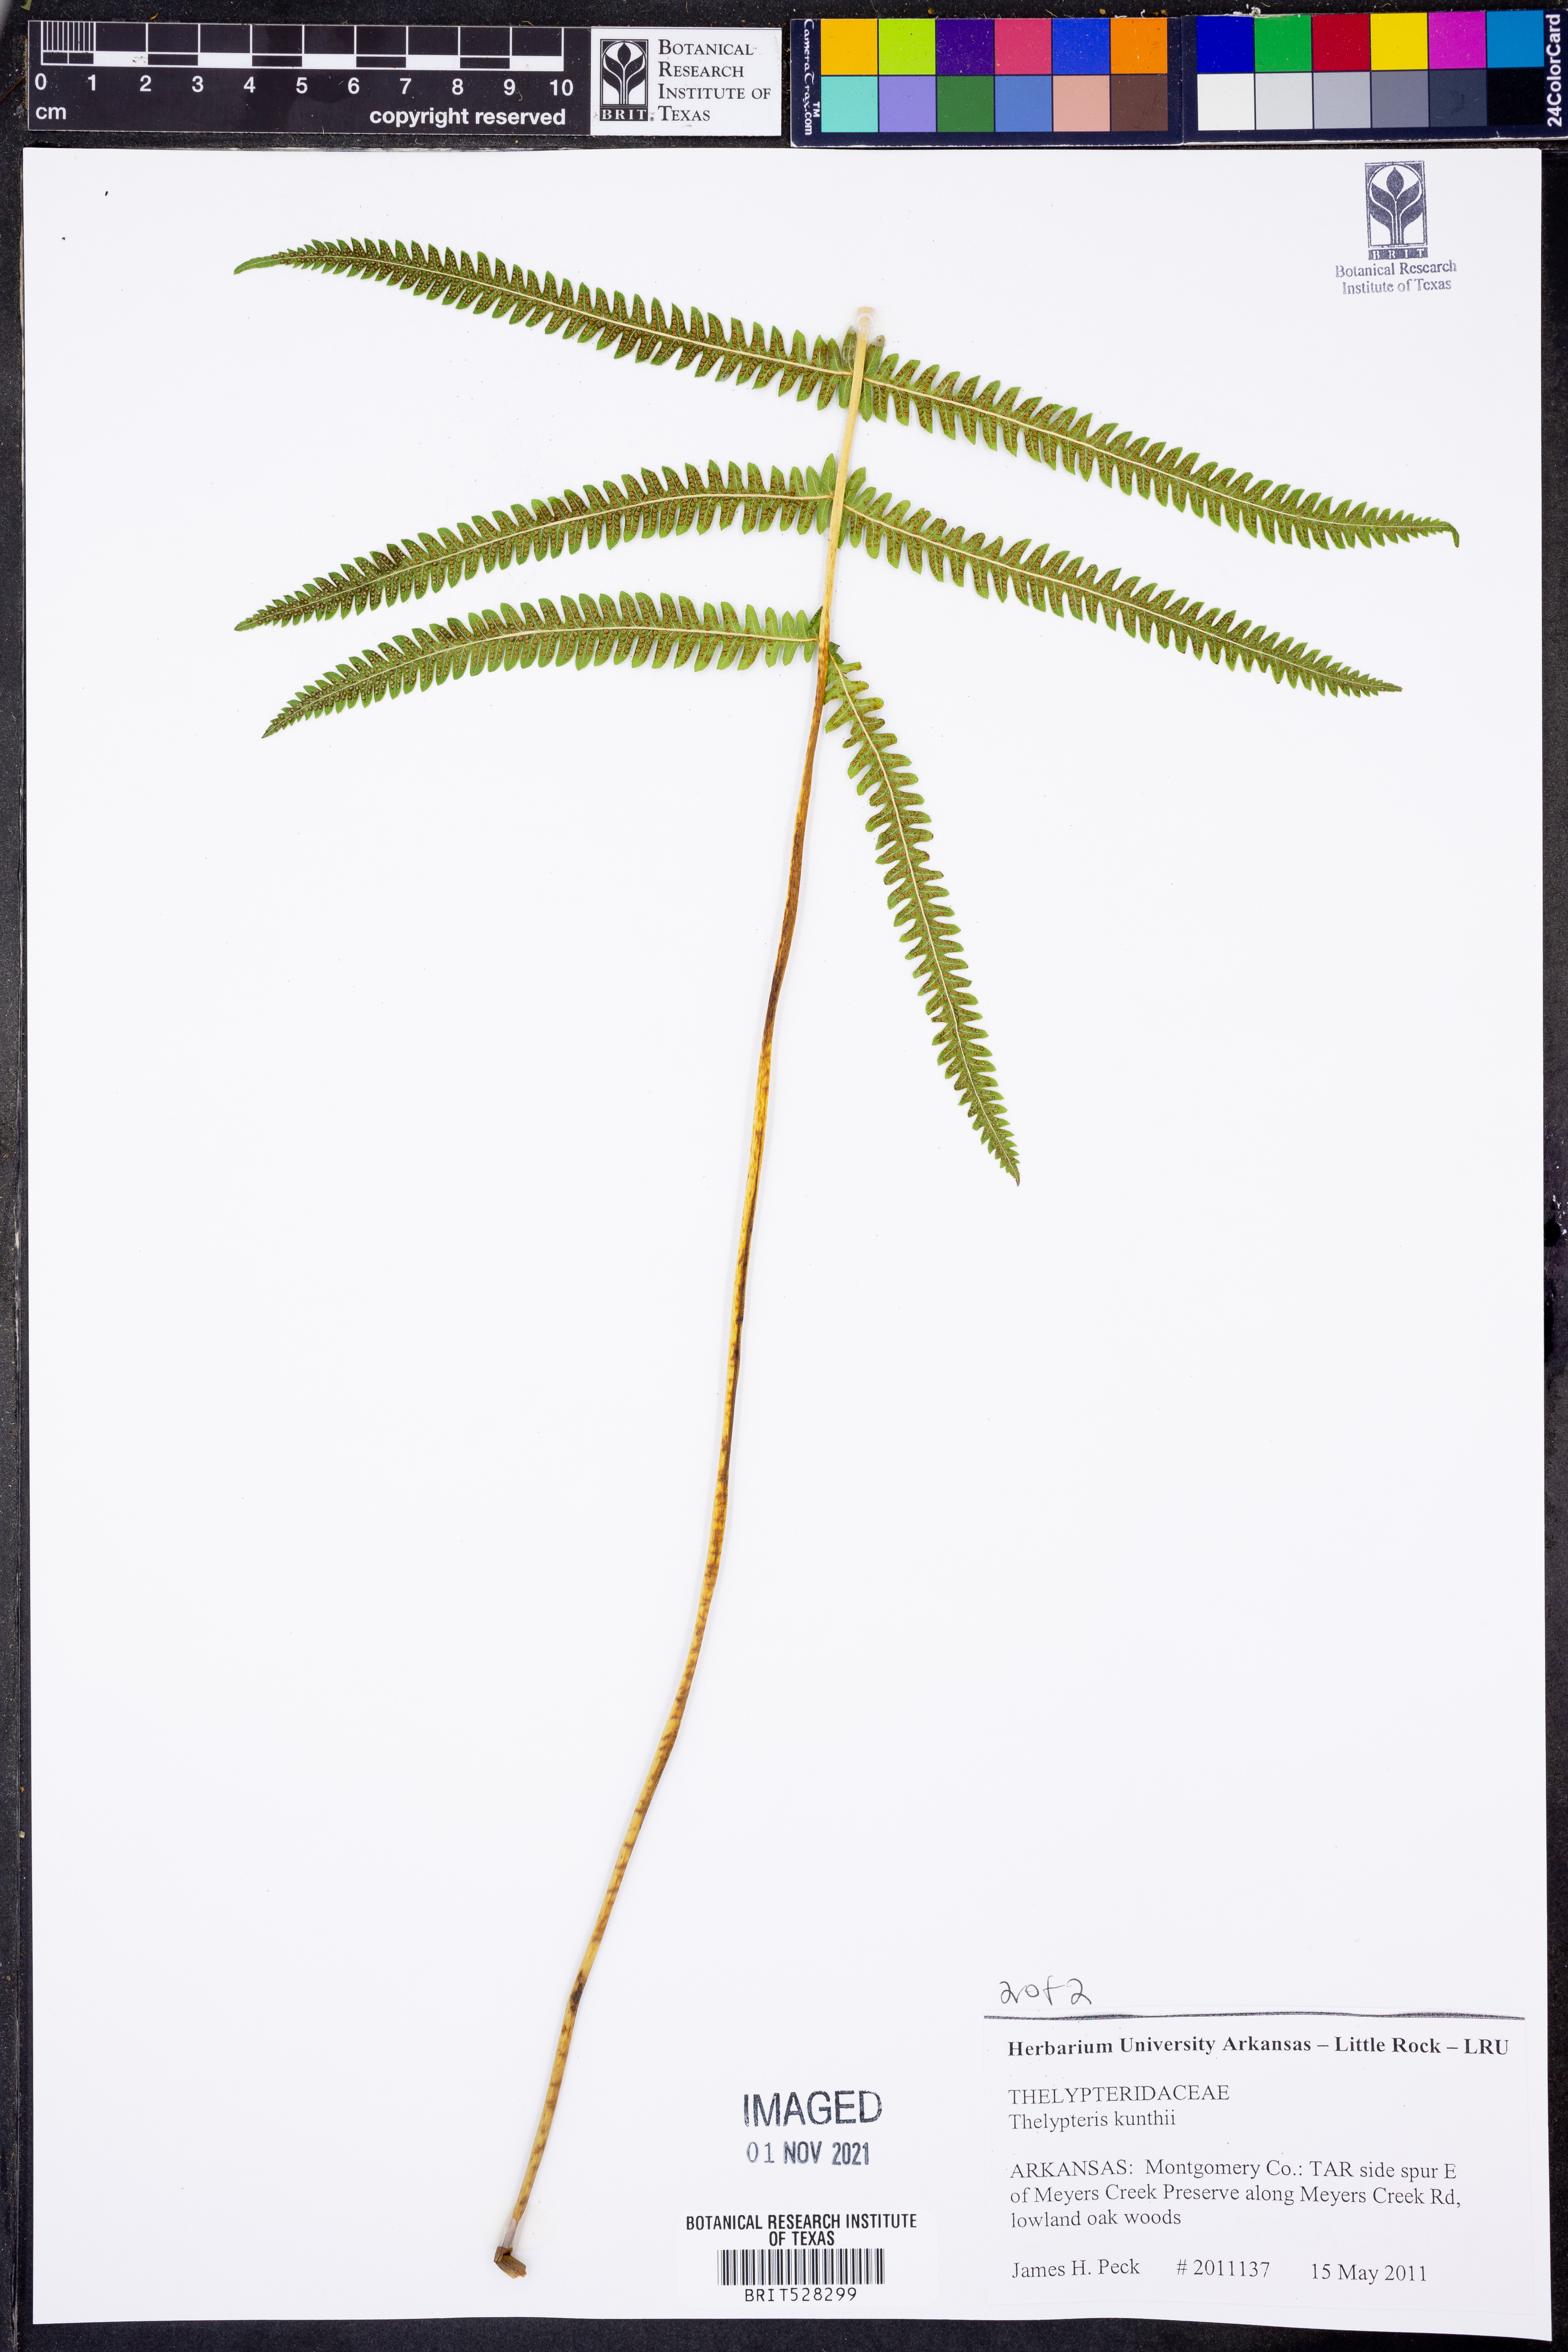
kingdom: Plantae
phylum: Tracheophyta
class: Polypodiopsida
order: Polypodiales
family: Thelypteridaceae
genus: Pelazoneuron
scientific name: Pelazoneuron kunthii
